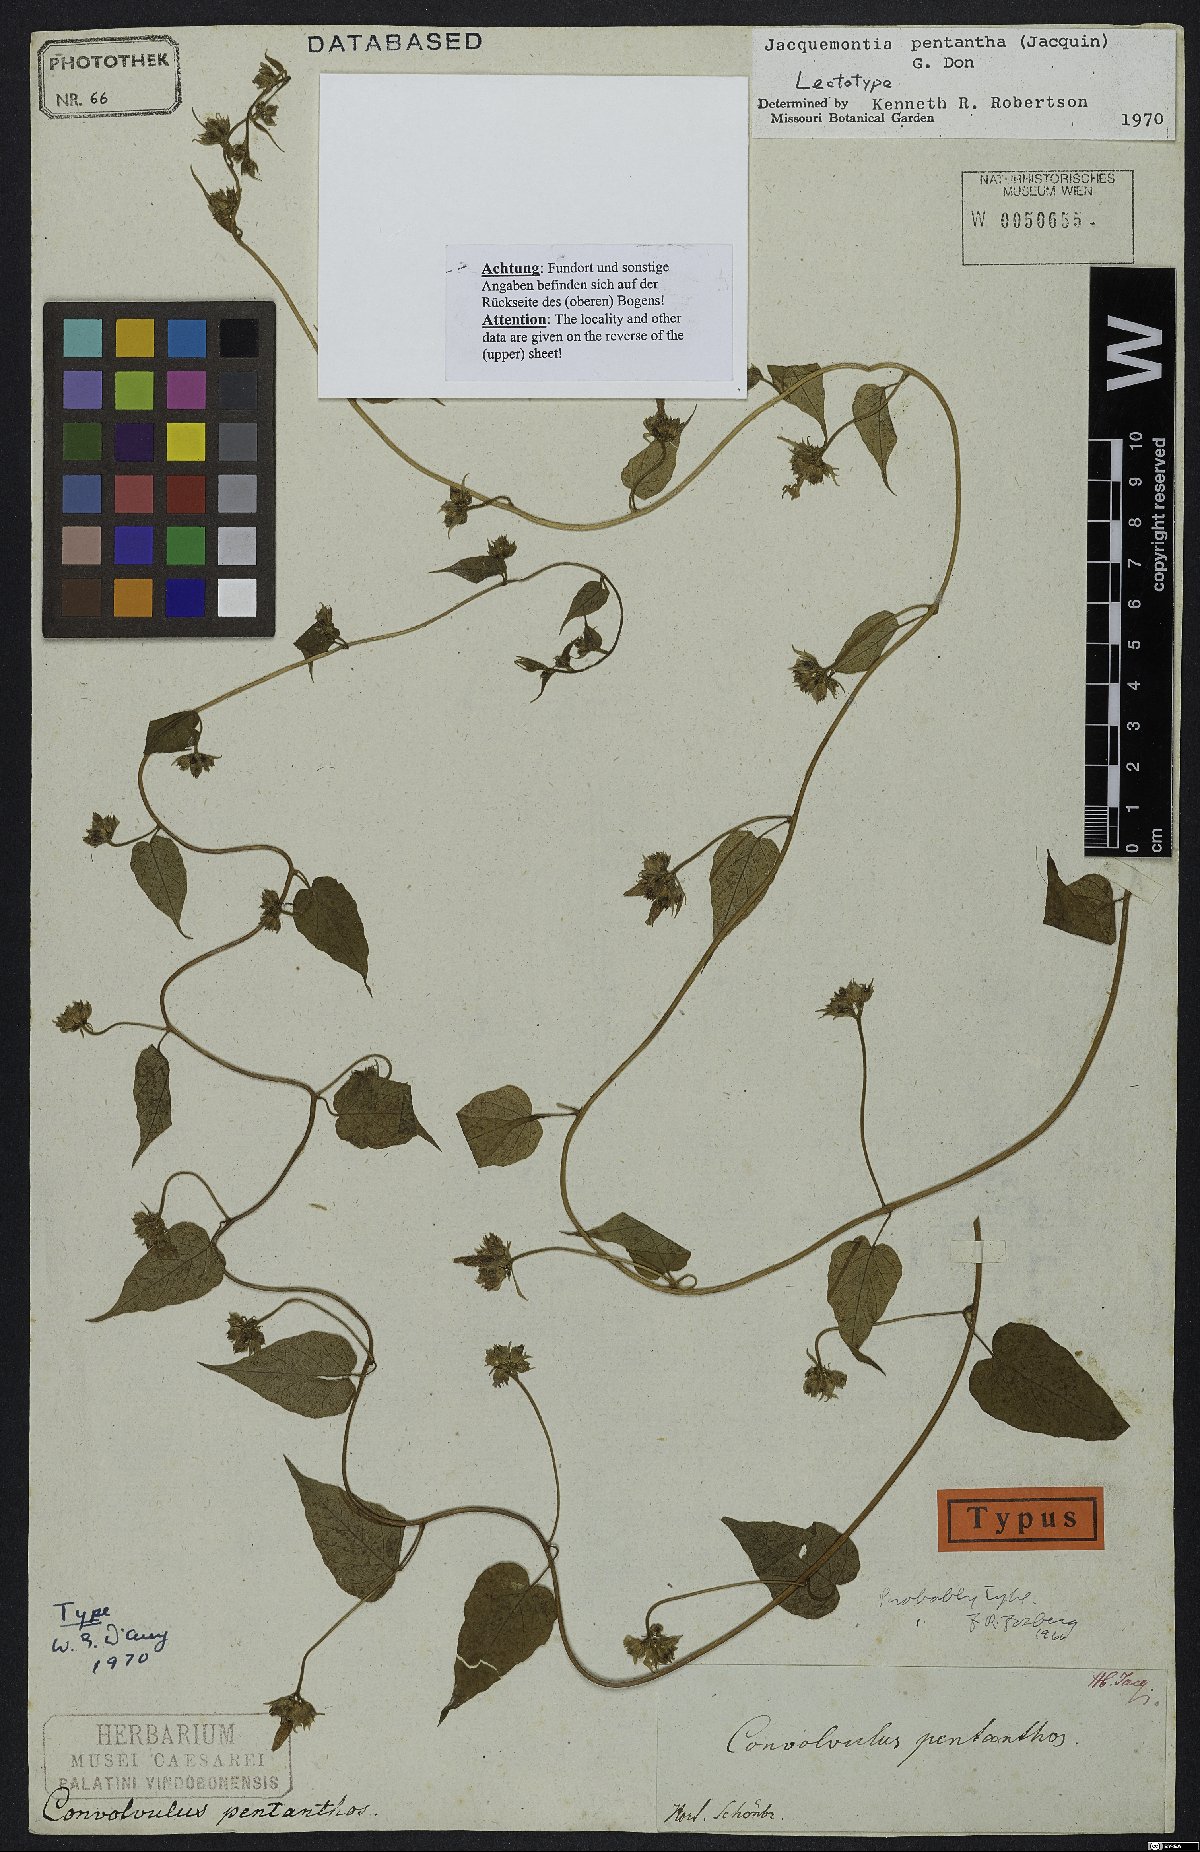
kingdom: Plantae
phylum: Tracheophyta
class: Magnoliopsida
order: Solanales
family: Convolvulaceae
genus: Jacquemontia
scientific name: Jacquemontia pentanthos
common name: Skyblue clustervine
